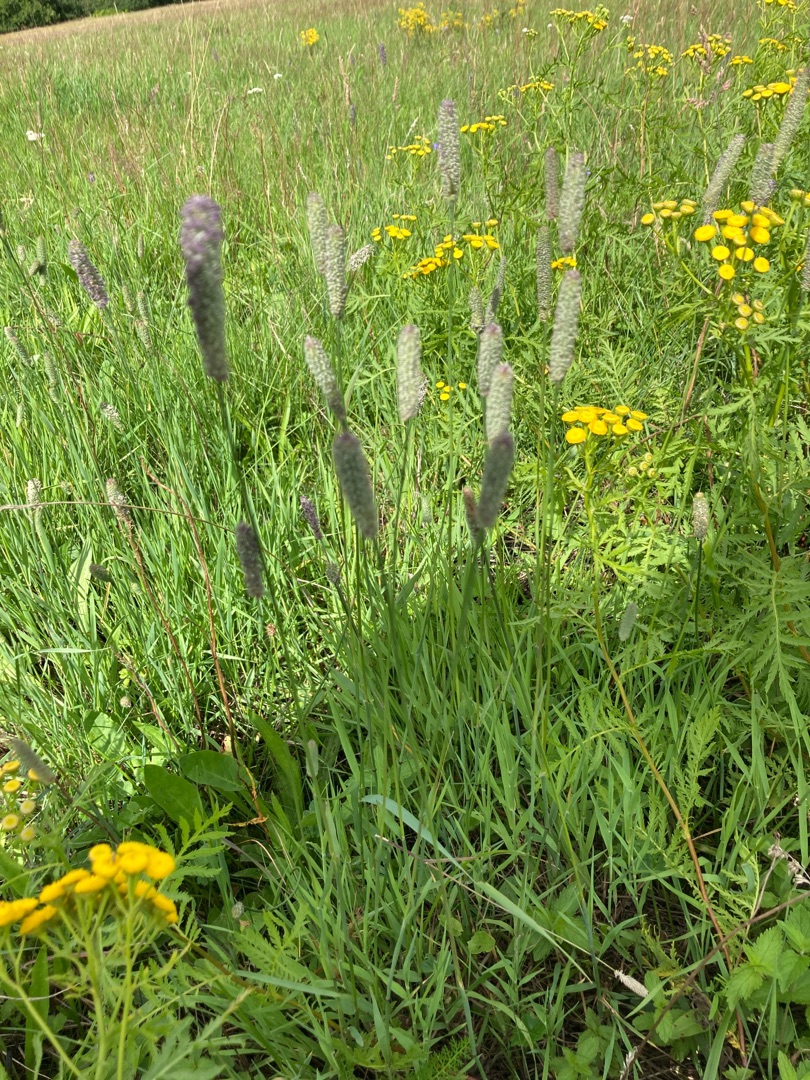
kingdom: Plantae
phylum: Tracheophyta
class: Liliopsida
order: Poales
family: Poaceae
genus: Phleum
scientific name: Phleum pratense
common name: Eng-rottehale
